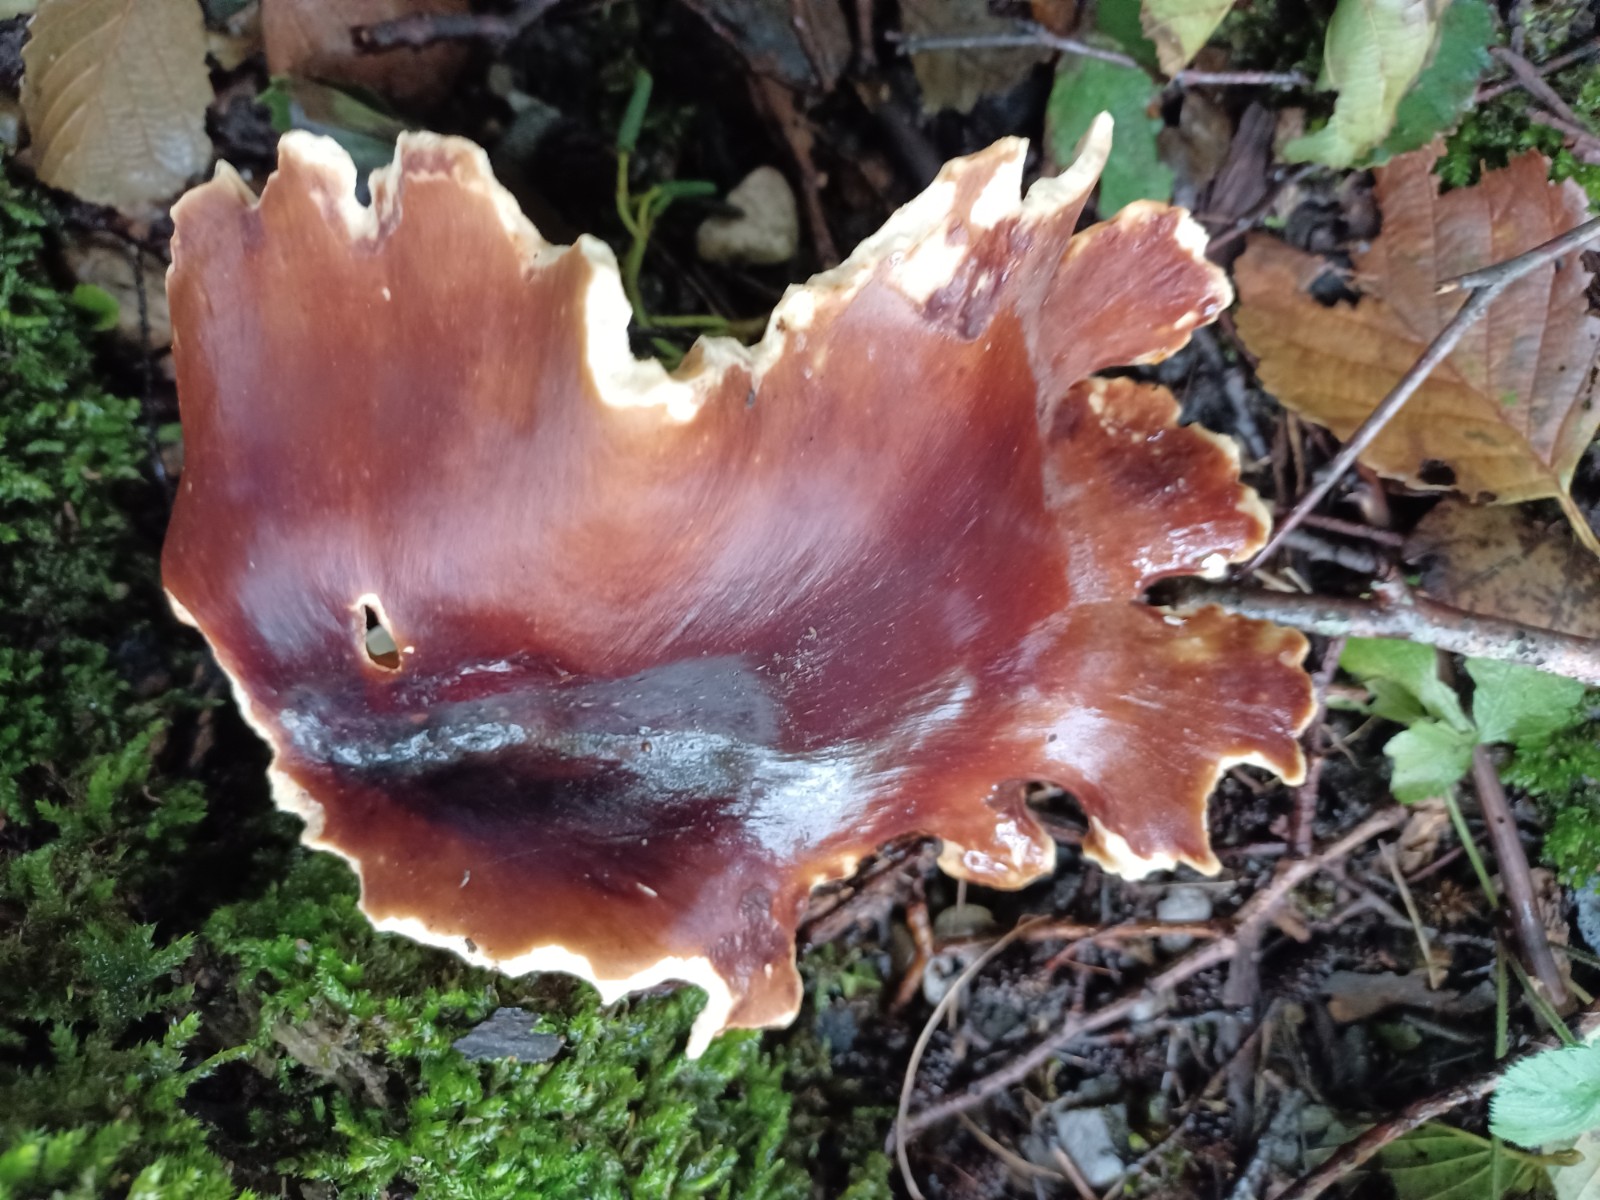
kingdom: Fungi
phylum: Basidiomycota
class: Agaricomycetes
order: Polyporales
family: Polyporaceae
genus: Picipes
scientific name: Picipes badius
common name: kastaniebrun stilkporesvamp
